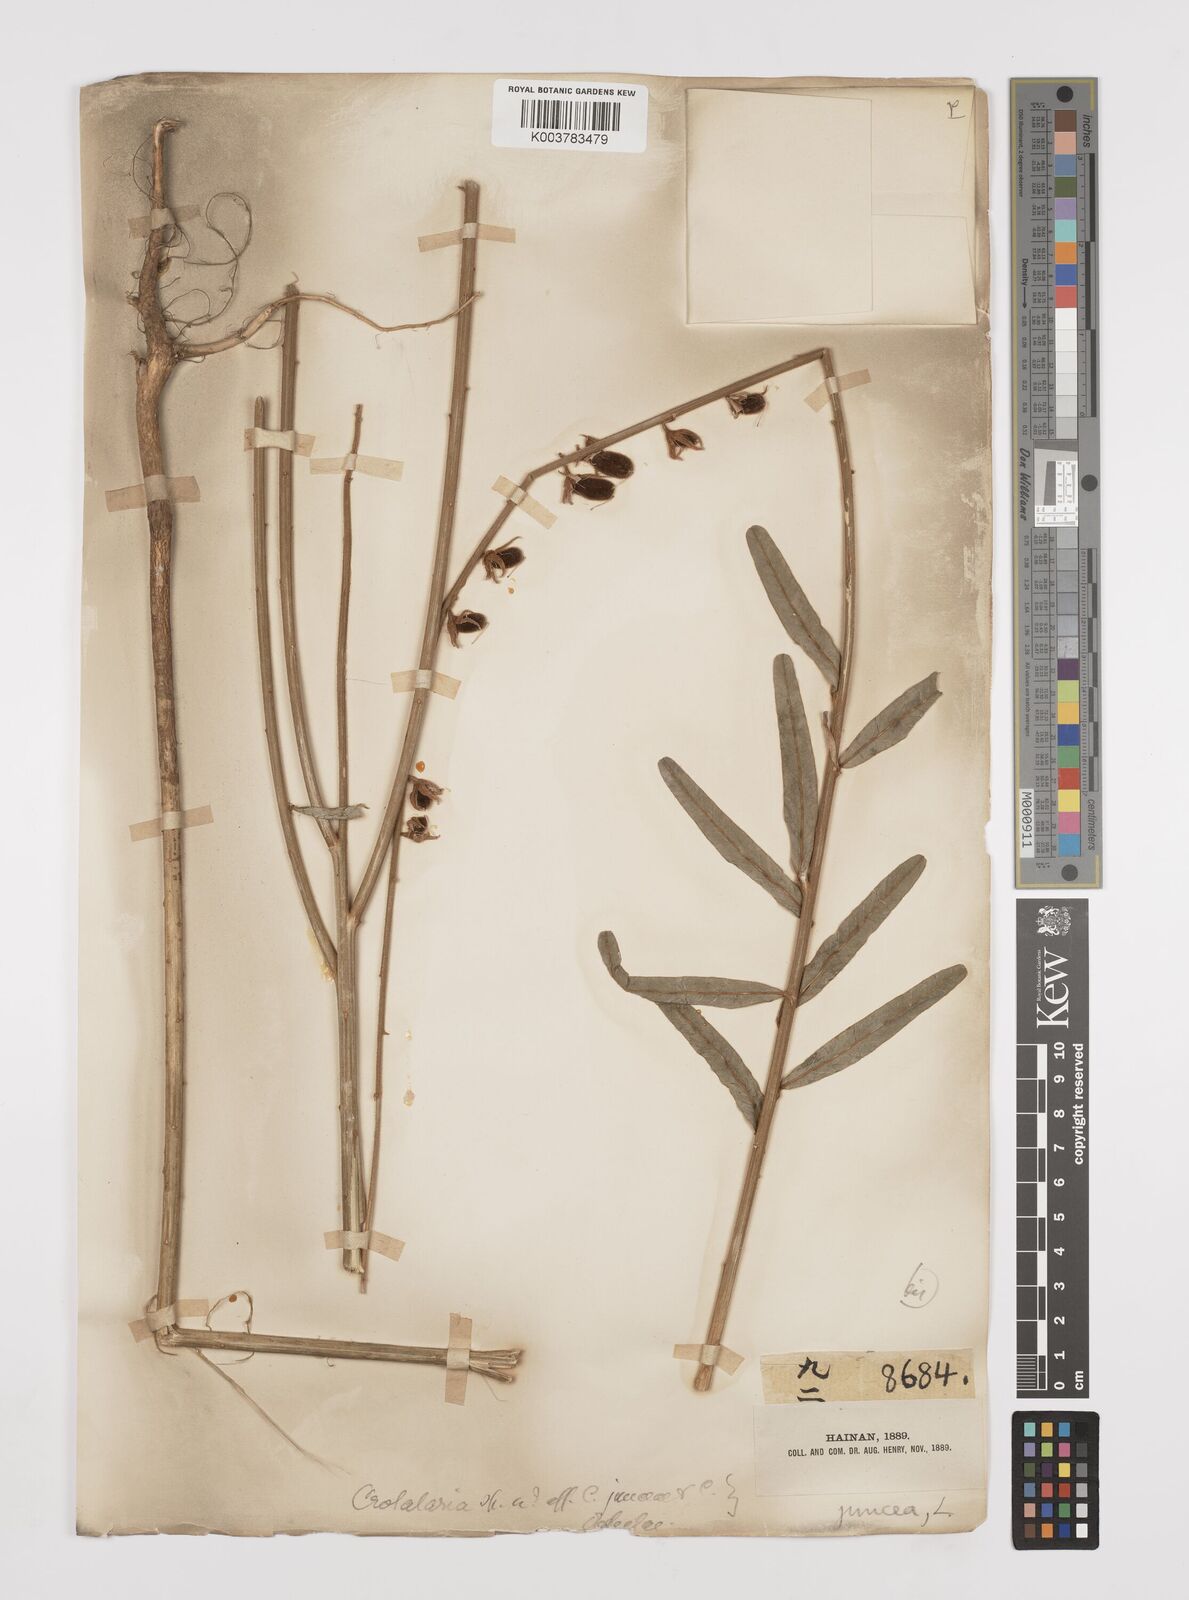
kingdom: Plantae
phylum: Tracheophyta
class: Magnoliopsida
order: Fabales
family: Fabaceae
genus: Crotalaria
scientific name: Crotalaria juncea
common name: Sunn hemp
